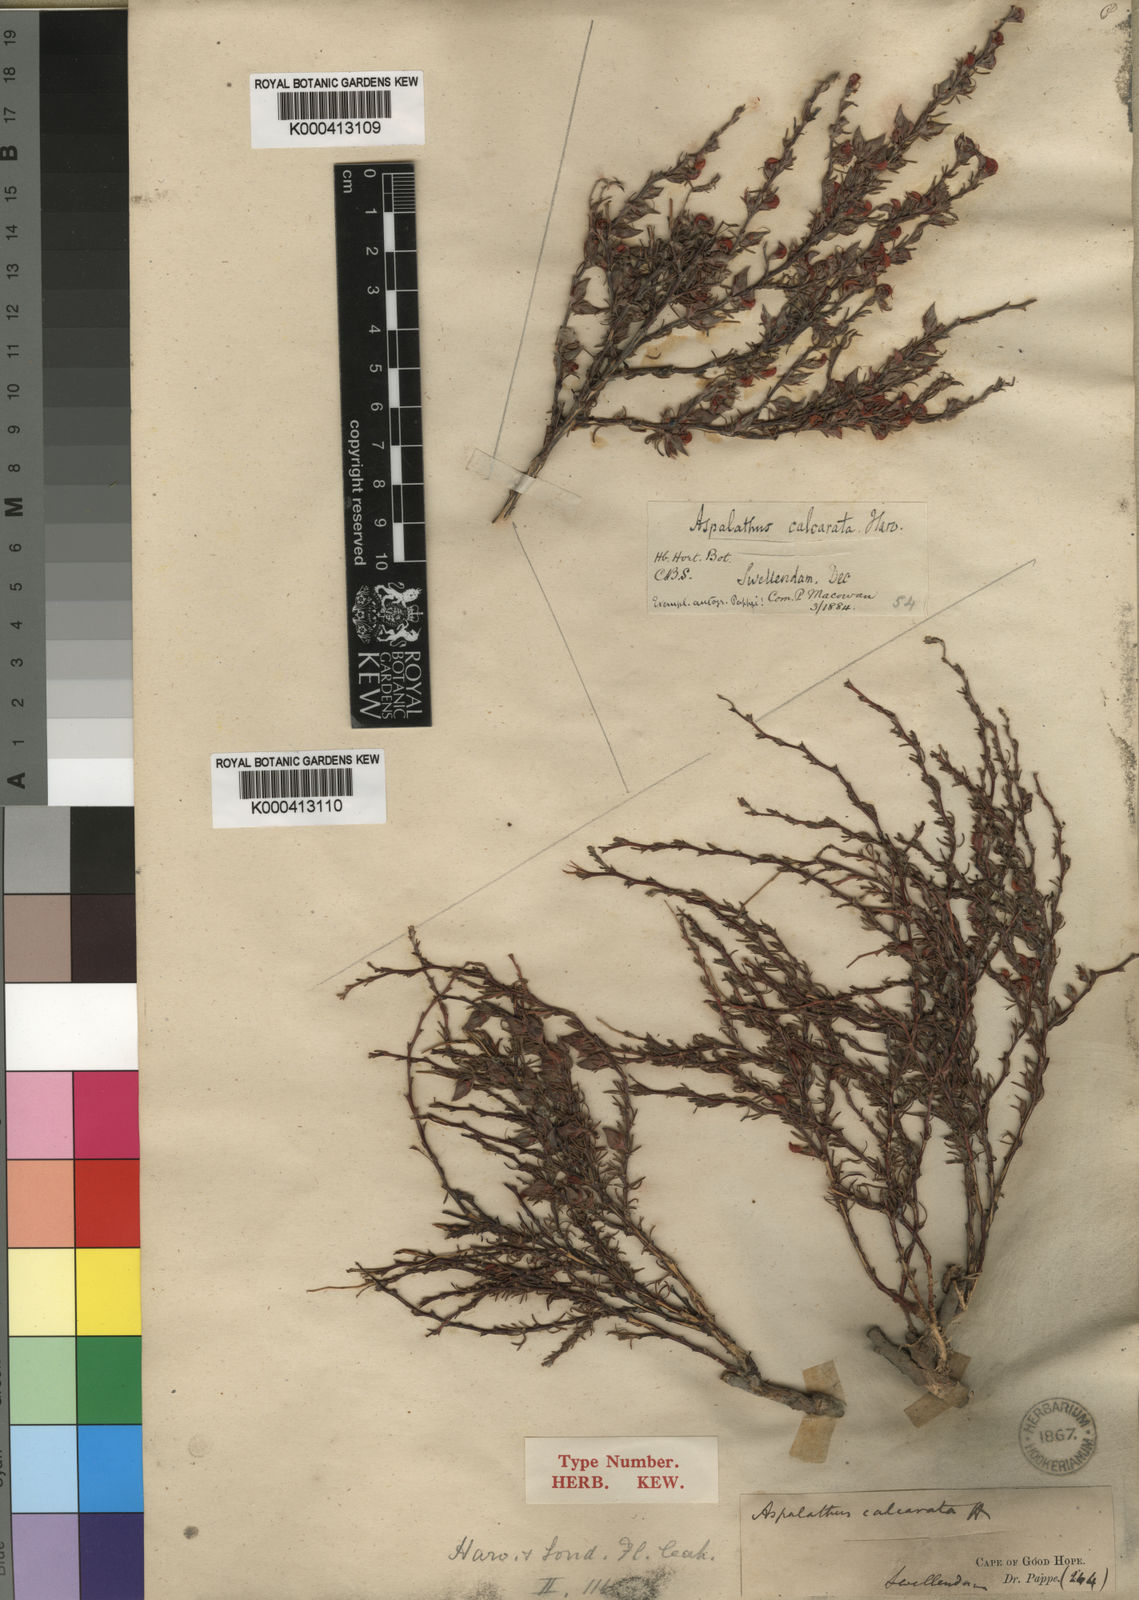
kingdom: Plantae
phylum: Tracheophyta
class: Magnoliopsida
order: Fabales
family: Fabaceae
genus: Aspalathus
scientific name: Aspalathus calcarata
